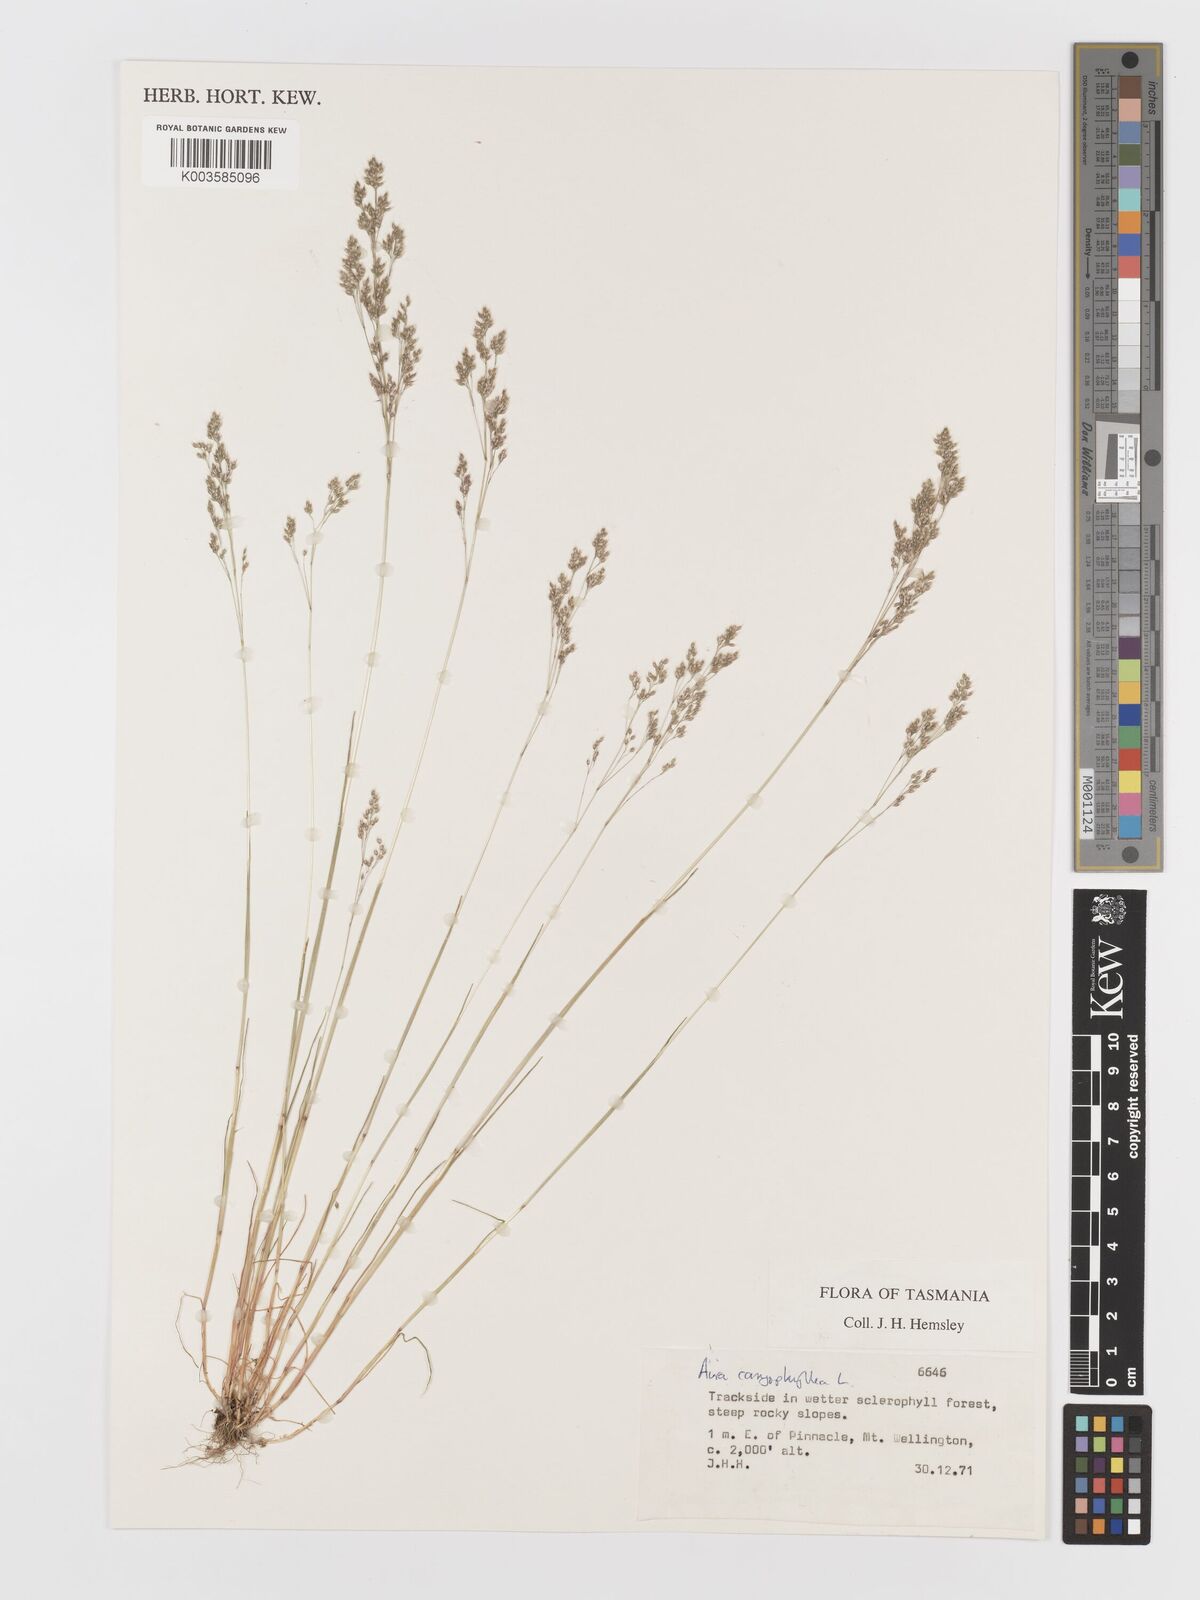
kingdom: Plantae
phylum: Tracheophyta
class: Liliopsida
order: Poales
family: Poaceae
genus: Aira
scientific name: Aira caryophyllea
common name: Silver hairgrass
